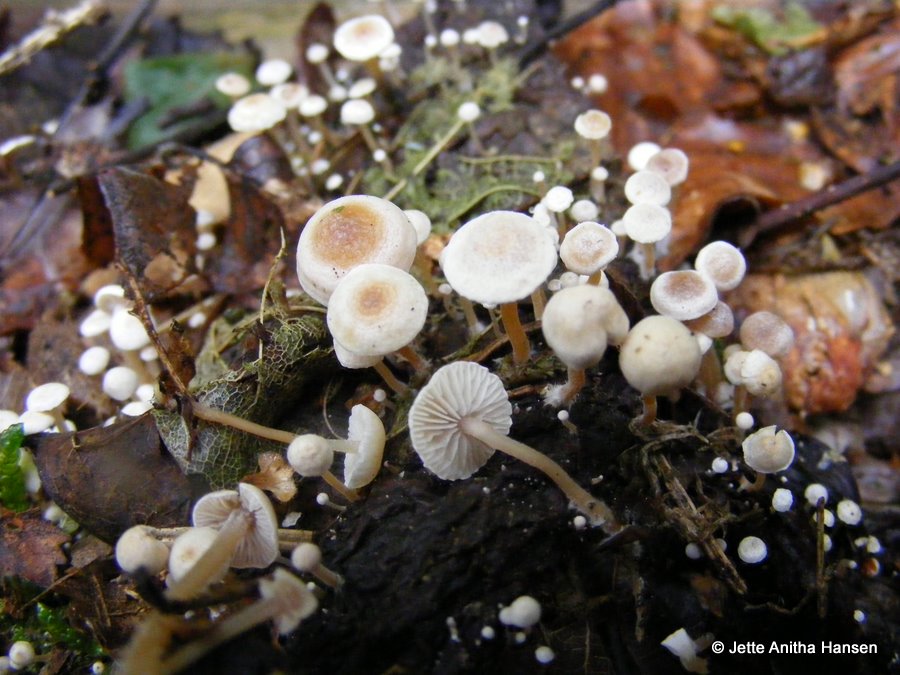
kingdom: Fungi
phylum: Basidiomycota
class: Agaricomycetes
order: Agaricales
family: Tricholomataceae
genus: Collybia
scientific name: Collybia cirrhata
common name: silke-lighat
